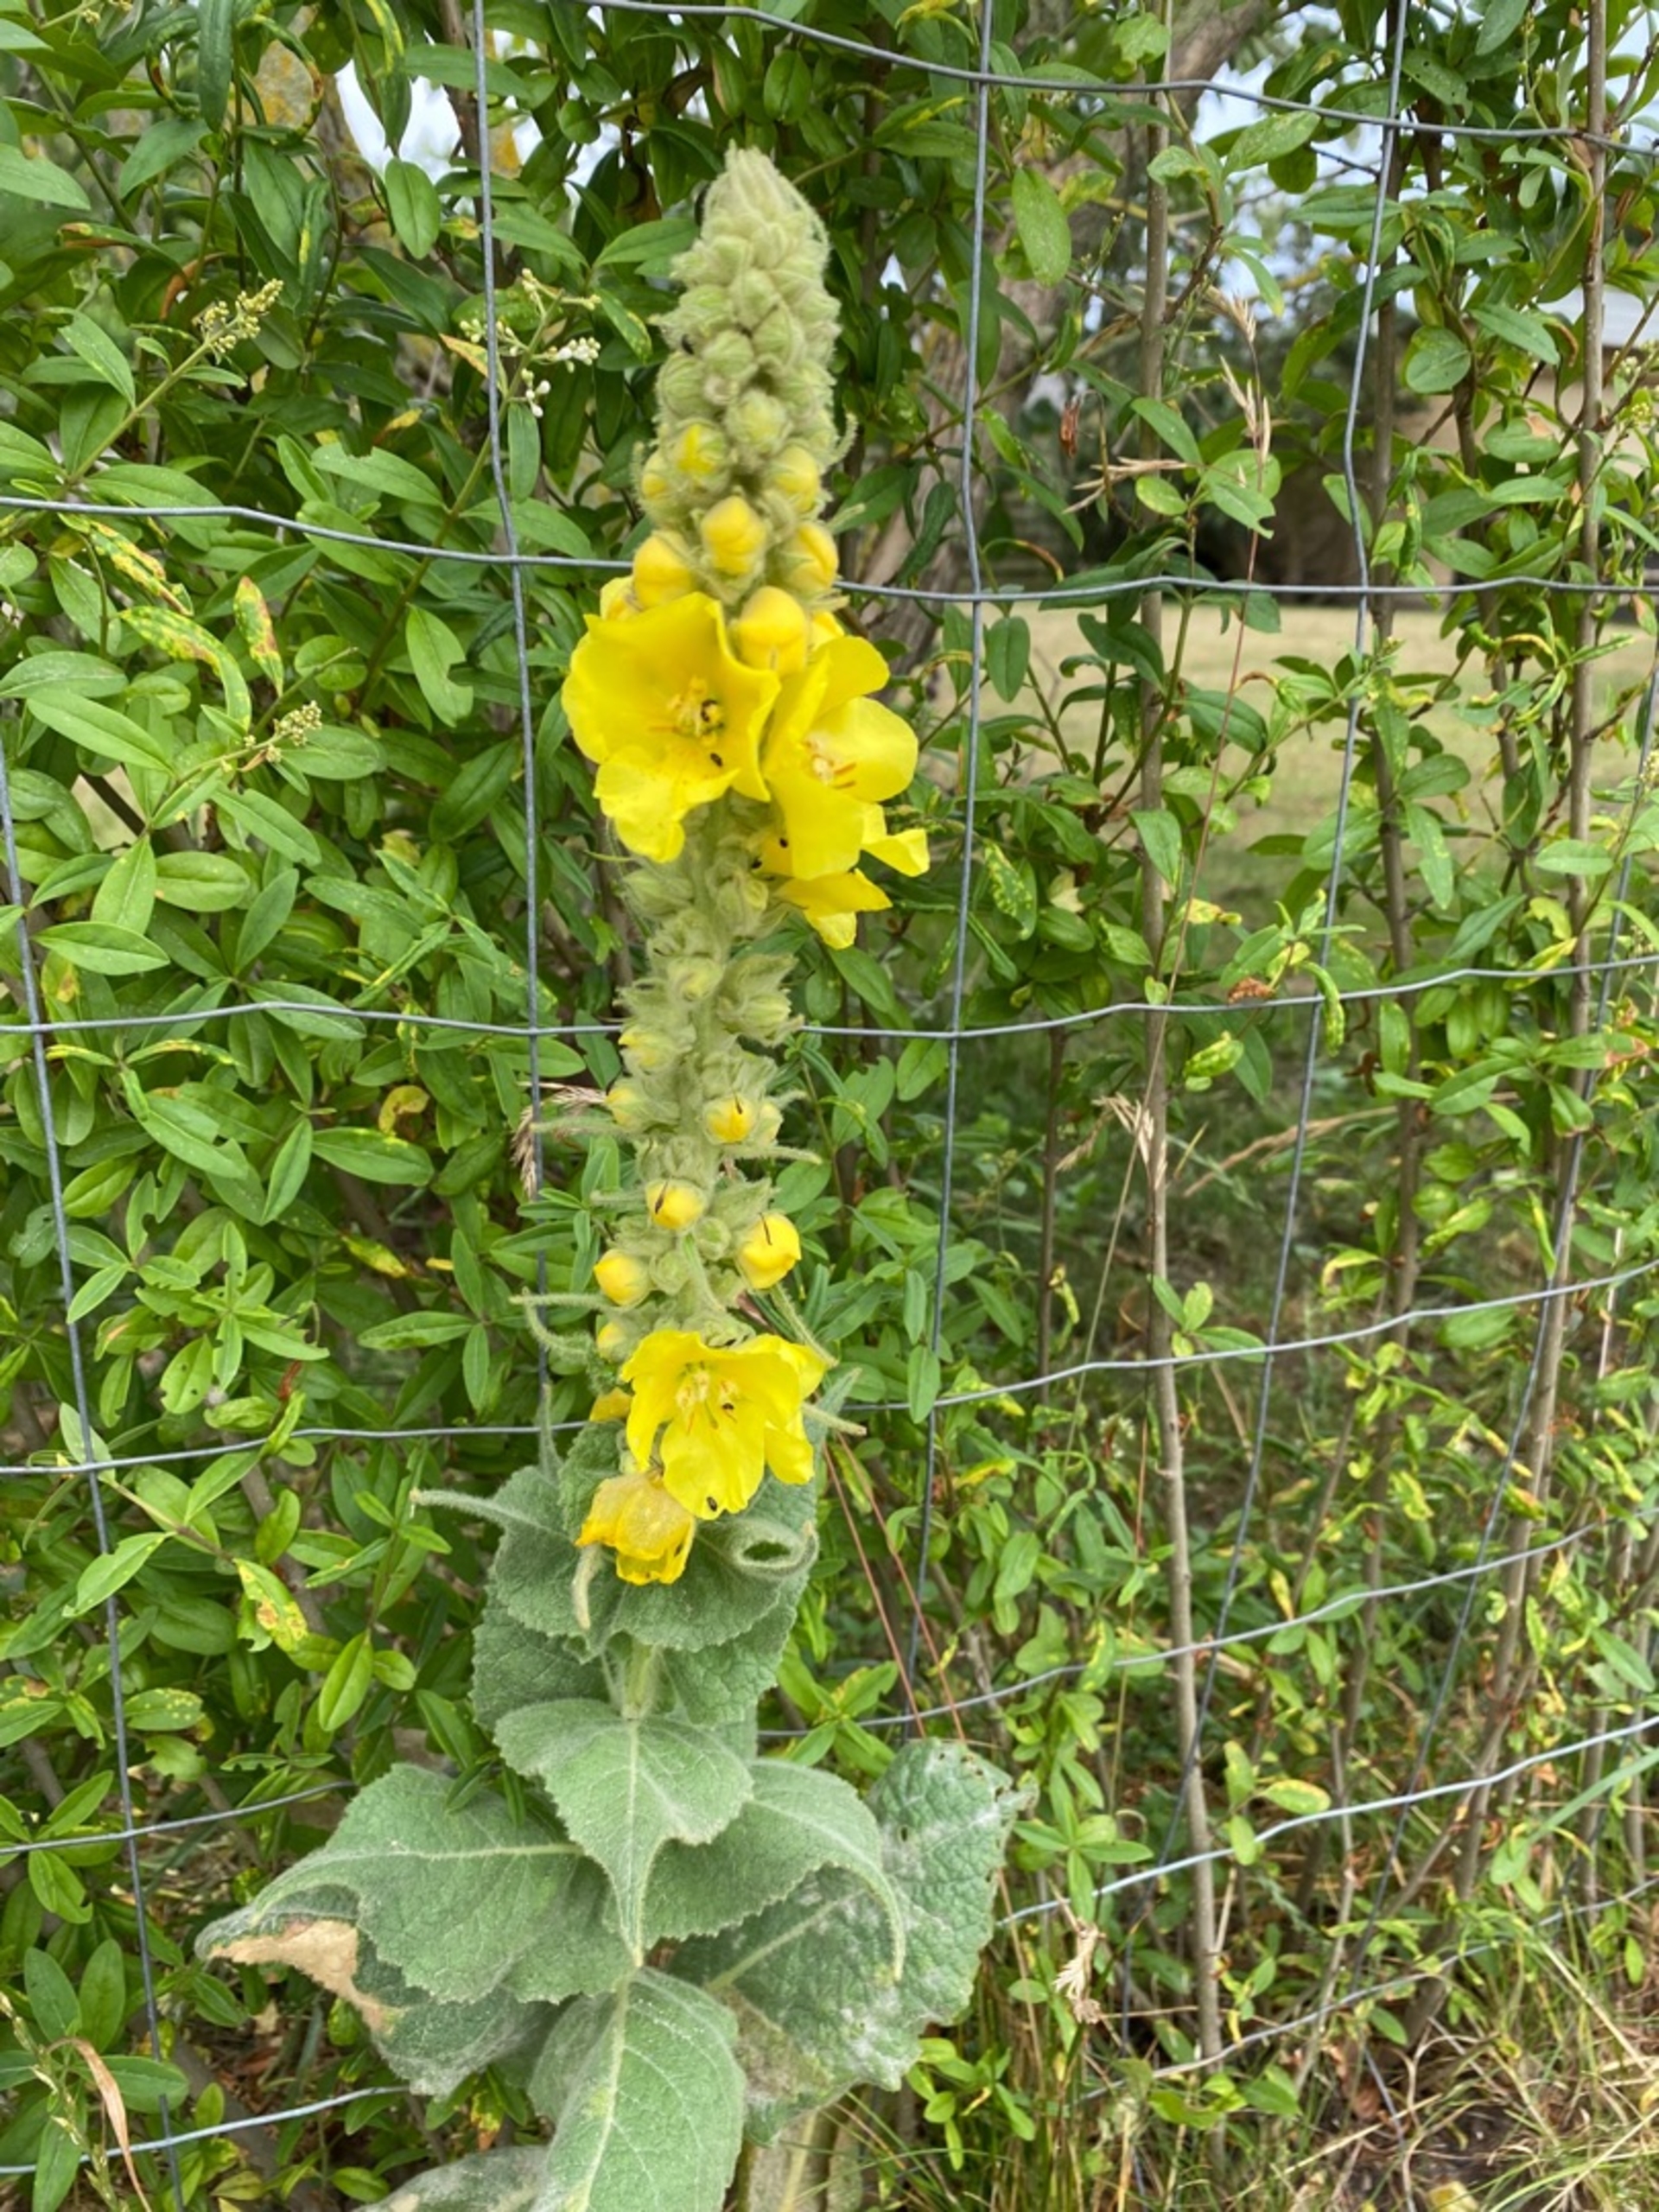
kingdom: Plantae
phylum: Tracheophyta
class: Magnoliopsida
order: Lamiales
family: Scrophulariaceae
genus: Verbascum
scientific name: Verbascum densiflorum
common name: Uldbladet kongelys
